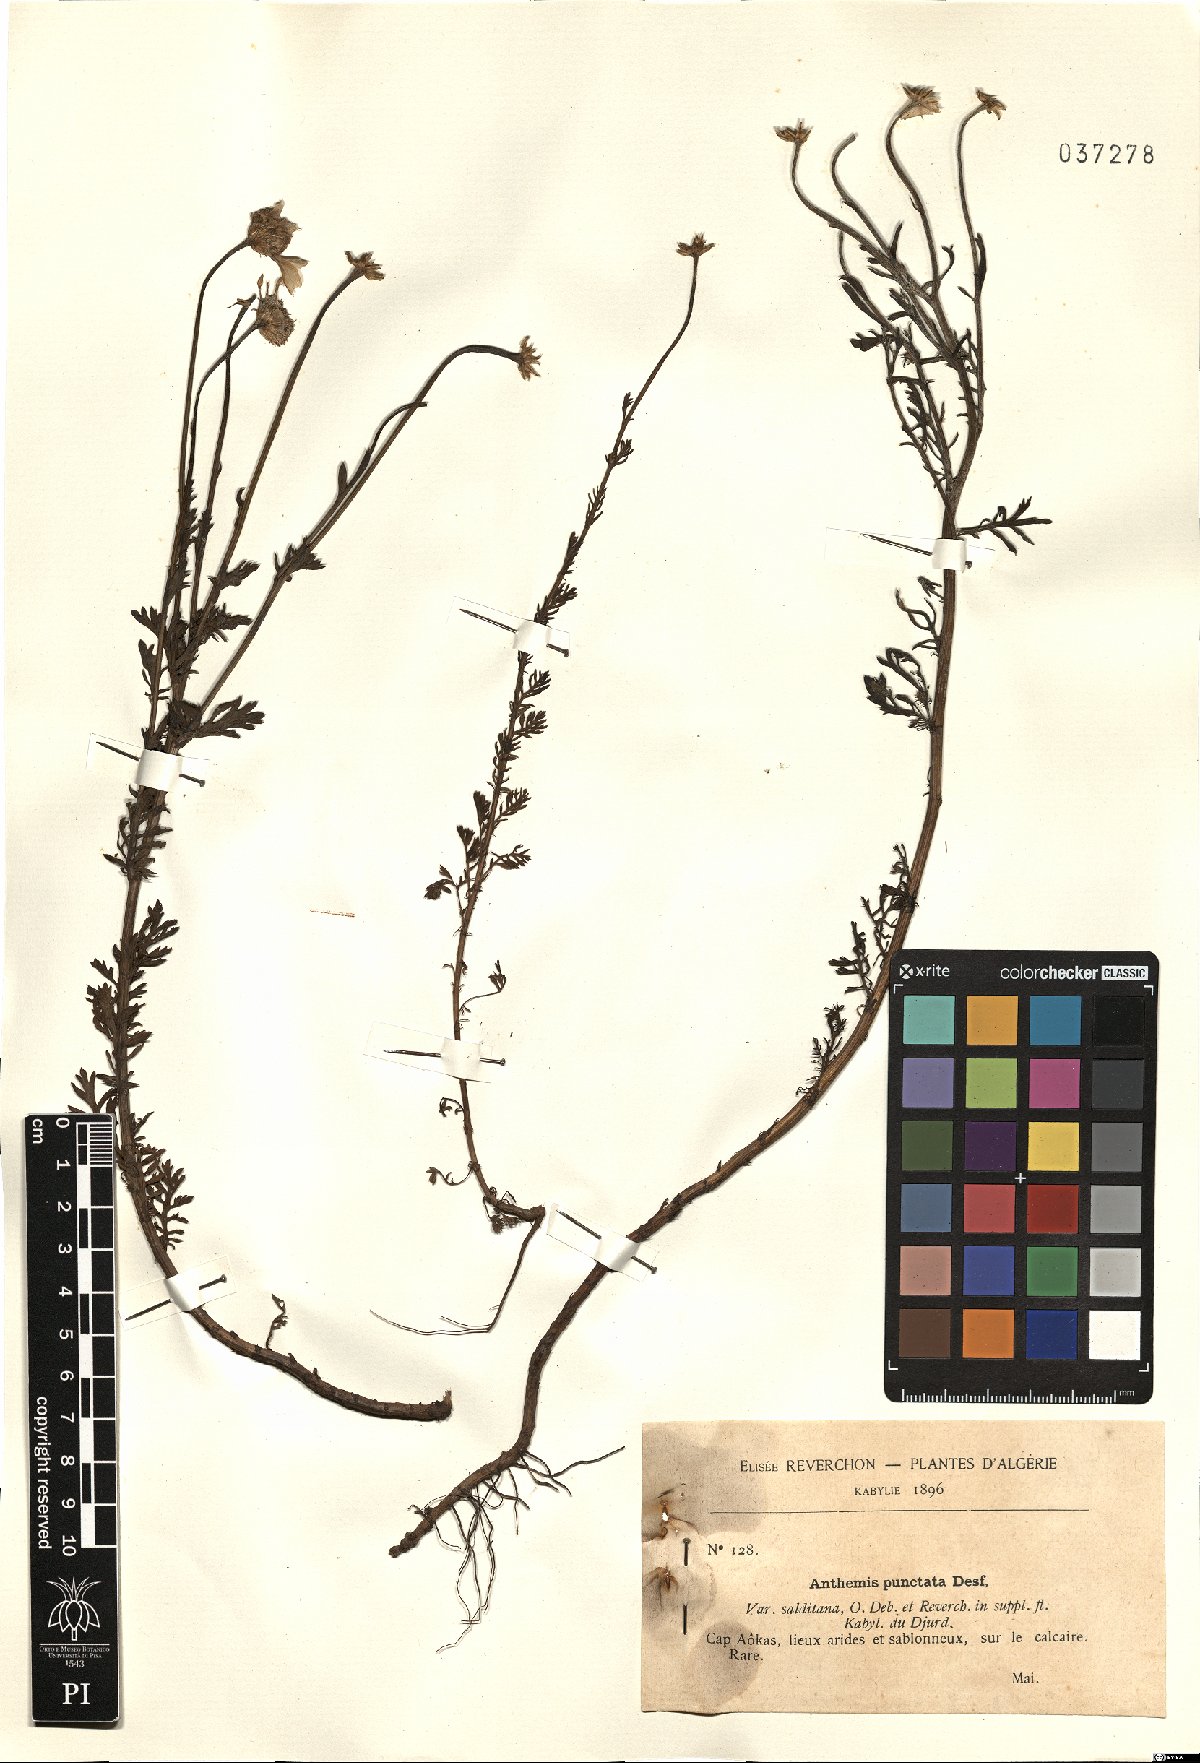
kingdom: Plantae
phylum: Tracheophyta
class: Magnoliopsida
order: Asterales
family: Asteraceae
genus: Anthemis
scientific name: Anthemis punctata
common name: Sicilian chamomile
